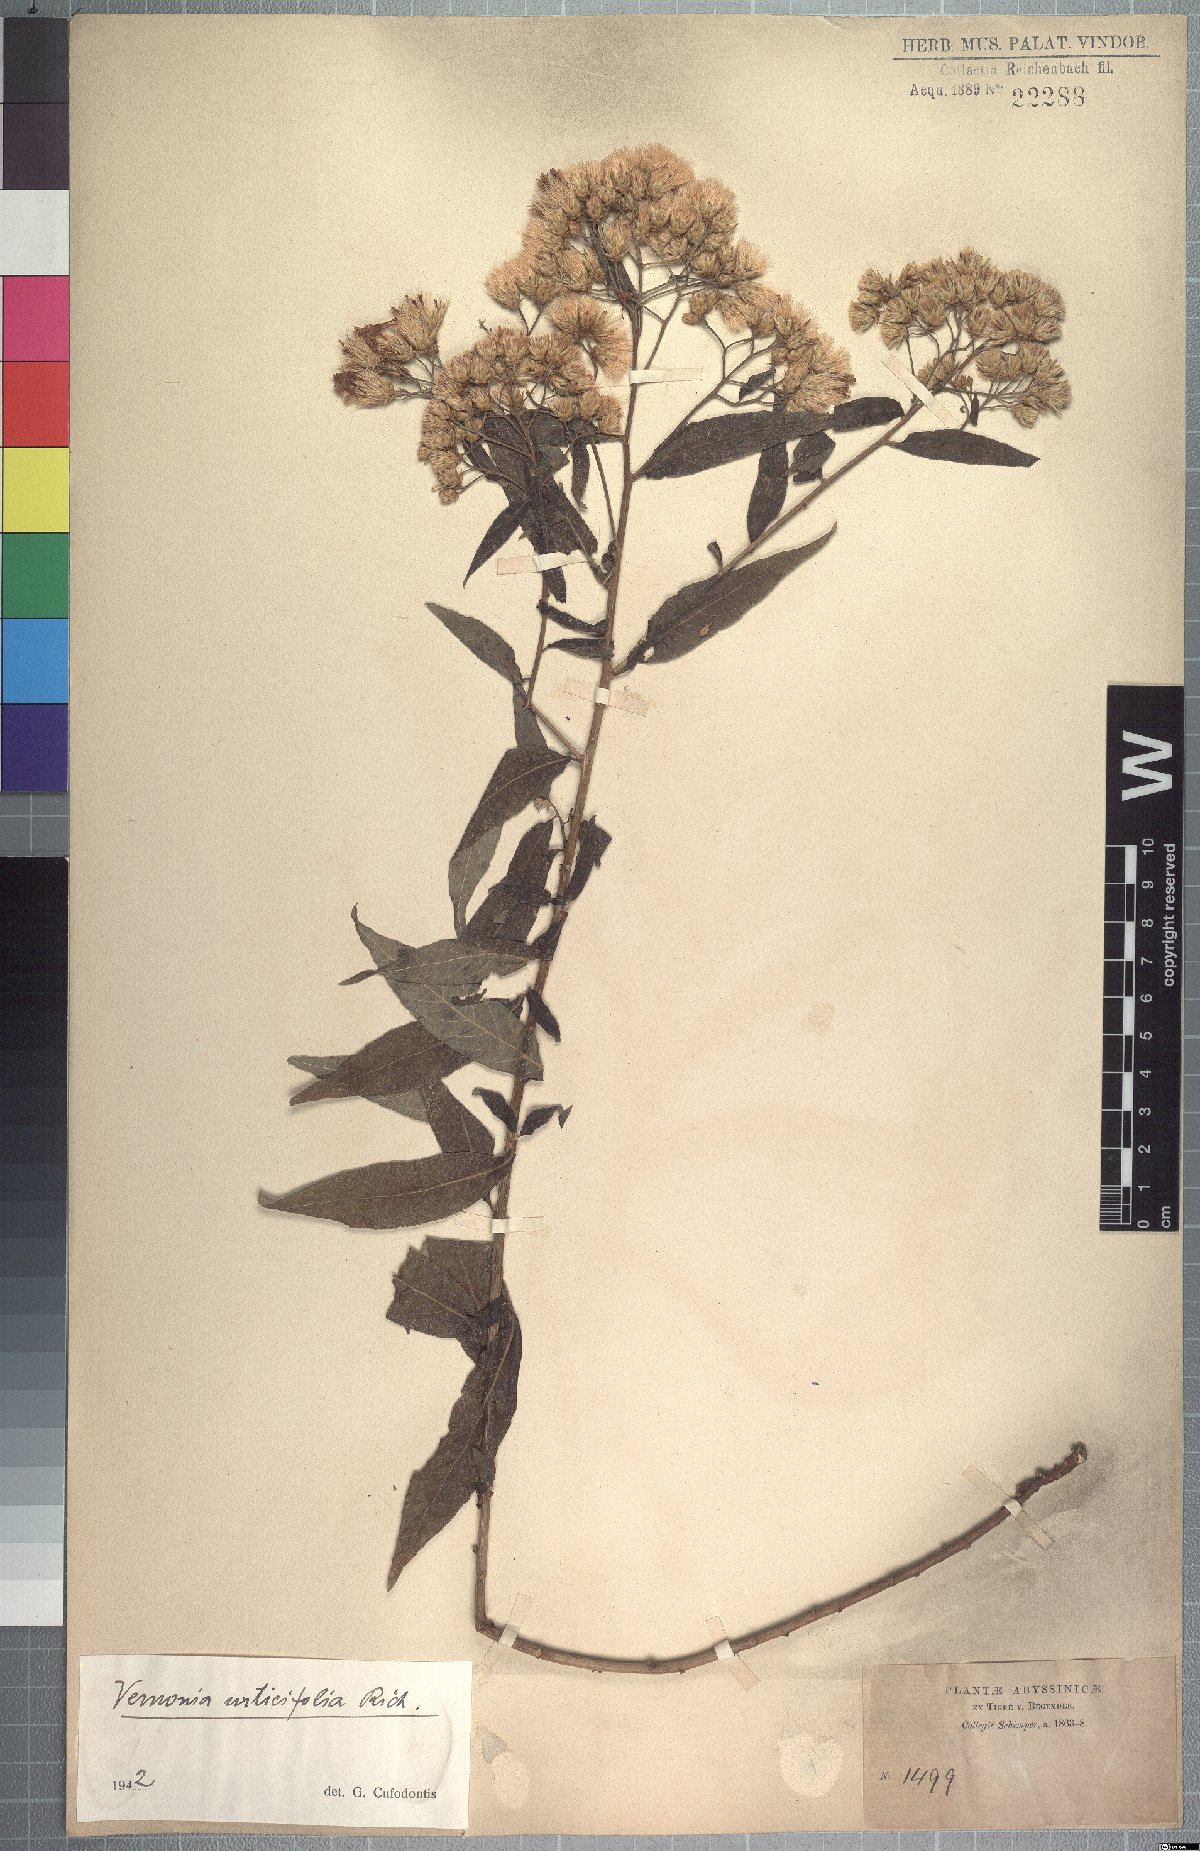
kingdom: Plantae
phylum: Tracheophyta
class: Magnoliopsida
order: Asterales
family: Asteraceae
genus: Gymnanthemum
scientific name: Gymnanthemum urticifolium
